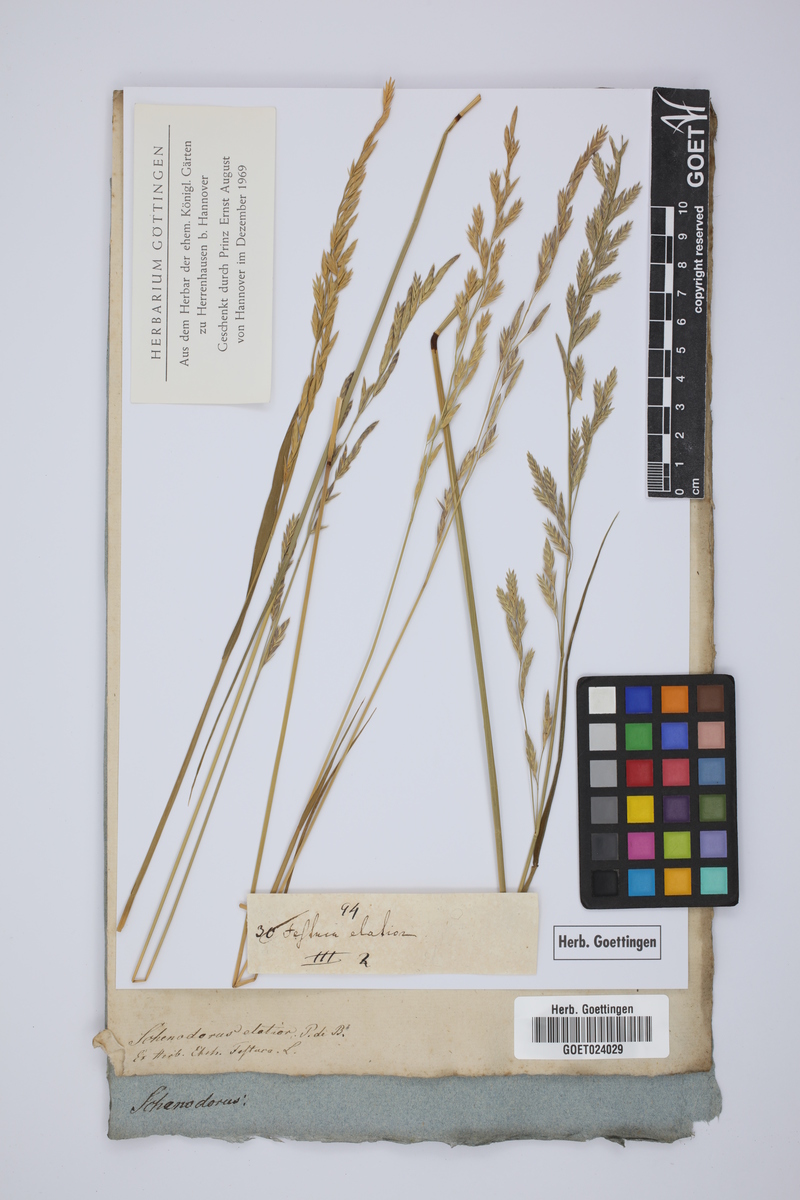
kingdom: Plantae
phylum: Tracheophyta
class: Liliopsida
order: Poales
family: Poaceae
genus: Lolium
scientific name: Lolium arundinaceum
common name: Reed fescue
